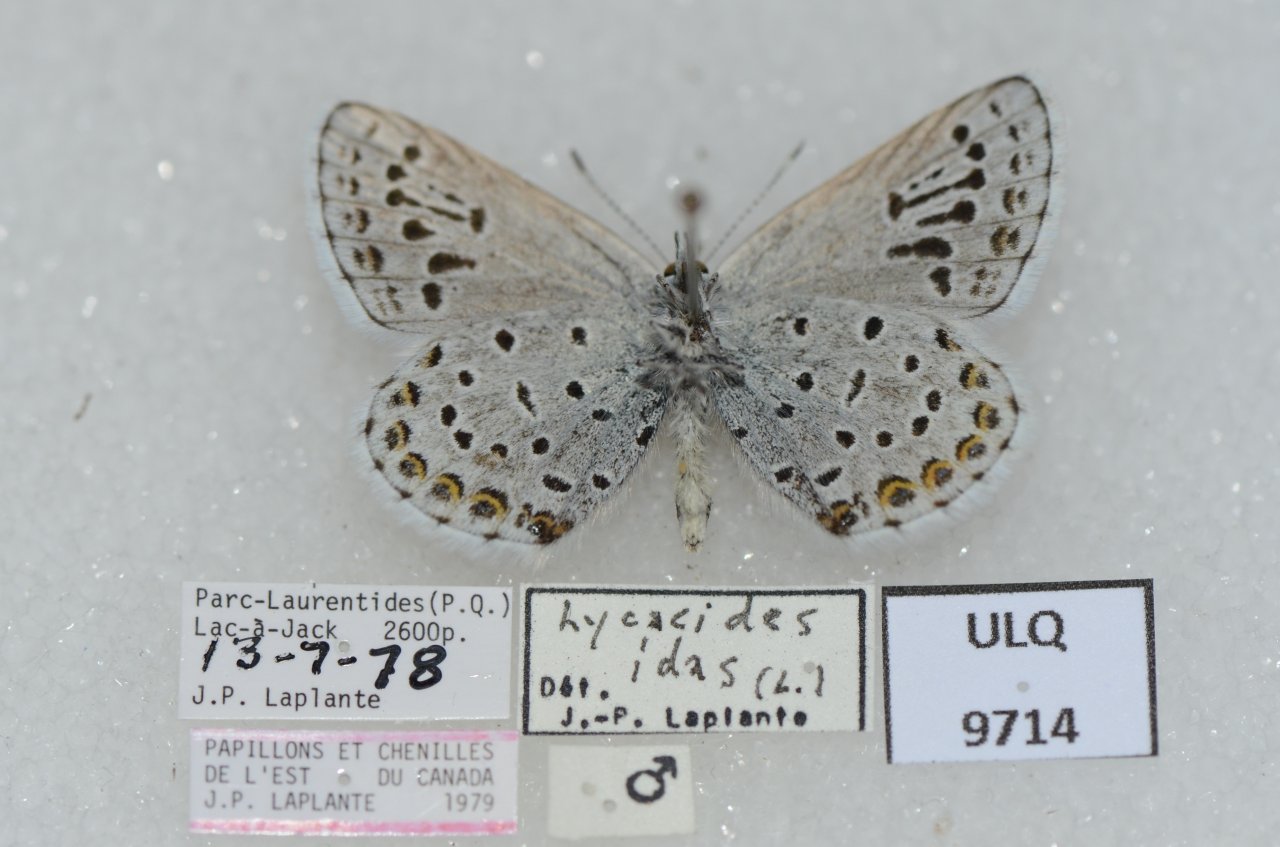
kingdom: Animalia
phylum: Arthropoda
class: Insecta
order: Lepidoptera
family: Lycaenidae
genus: Lycaeides
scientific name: Lycaeides idas
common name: Northern Blue
